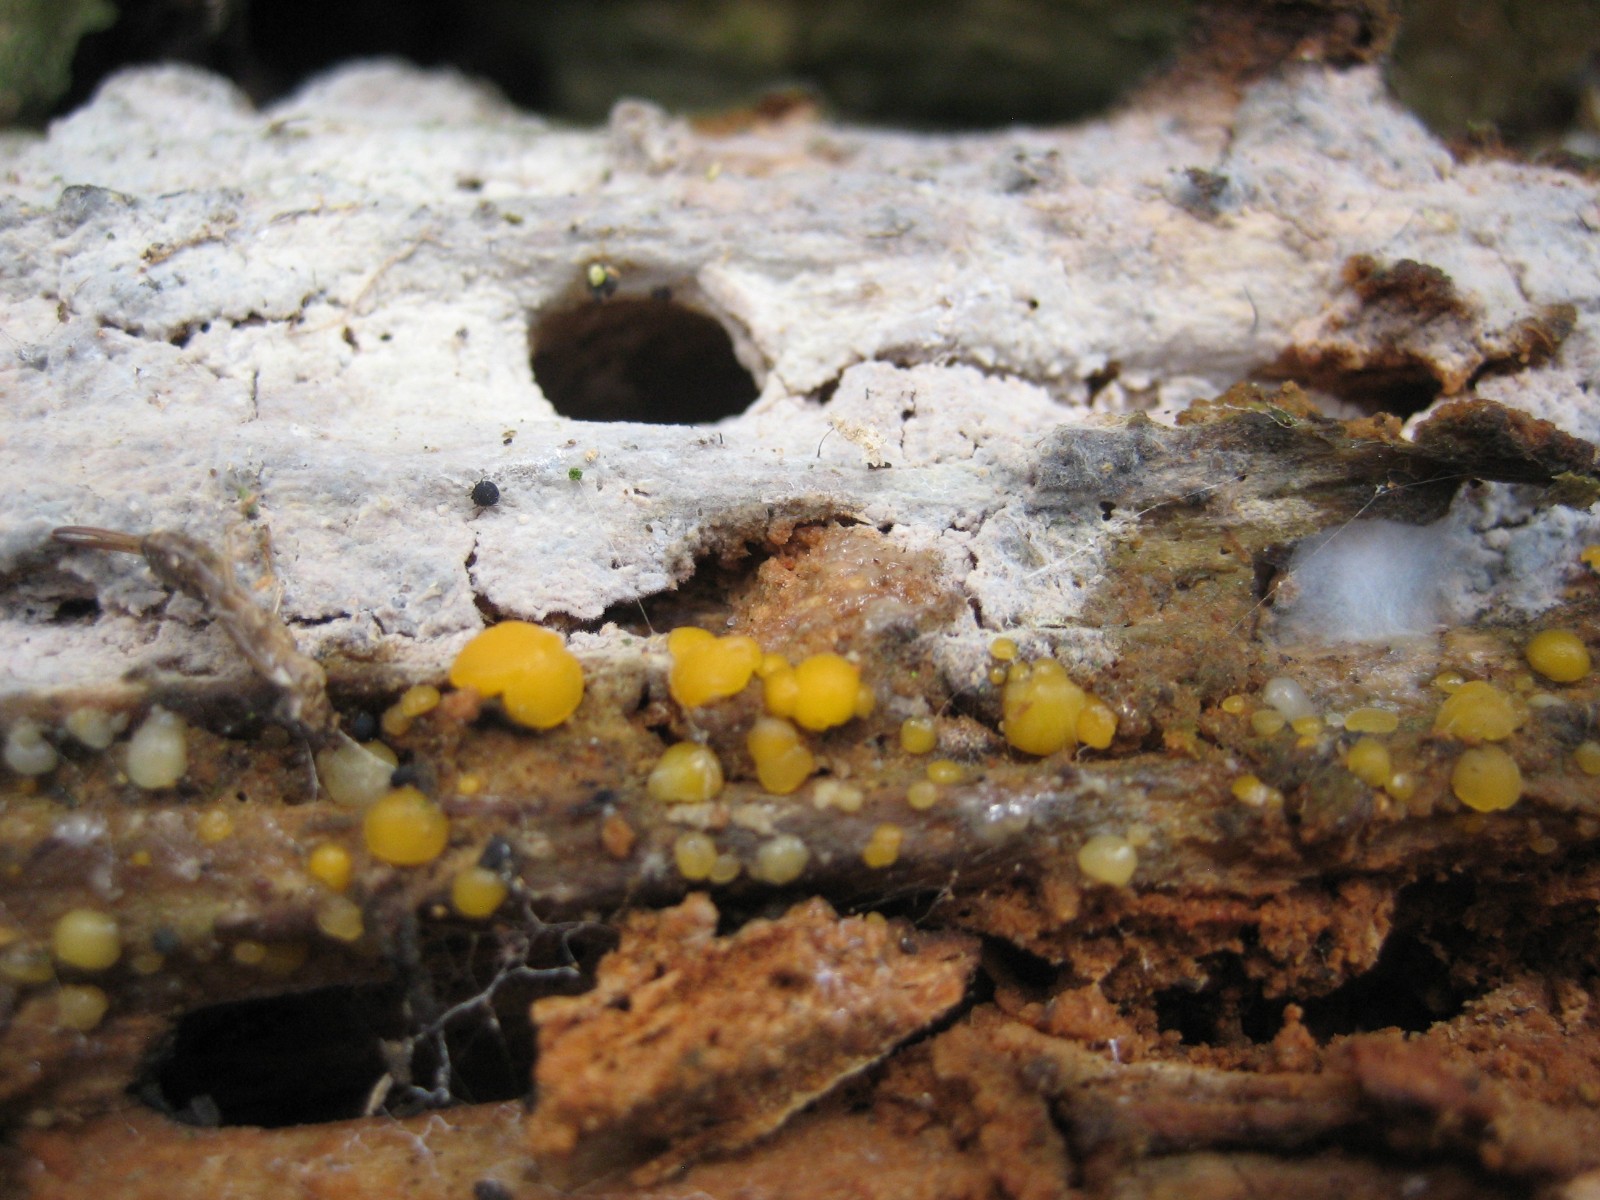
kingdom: Fungi
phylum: Basidiomycota
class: Dacrymycetes
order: Dacrymycetales
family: Dacrymycetaceae
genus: Dacrymyces
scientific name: Dacrymyces stillatus
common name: almindelig tåresvamp
